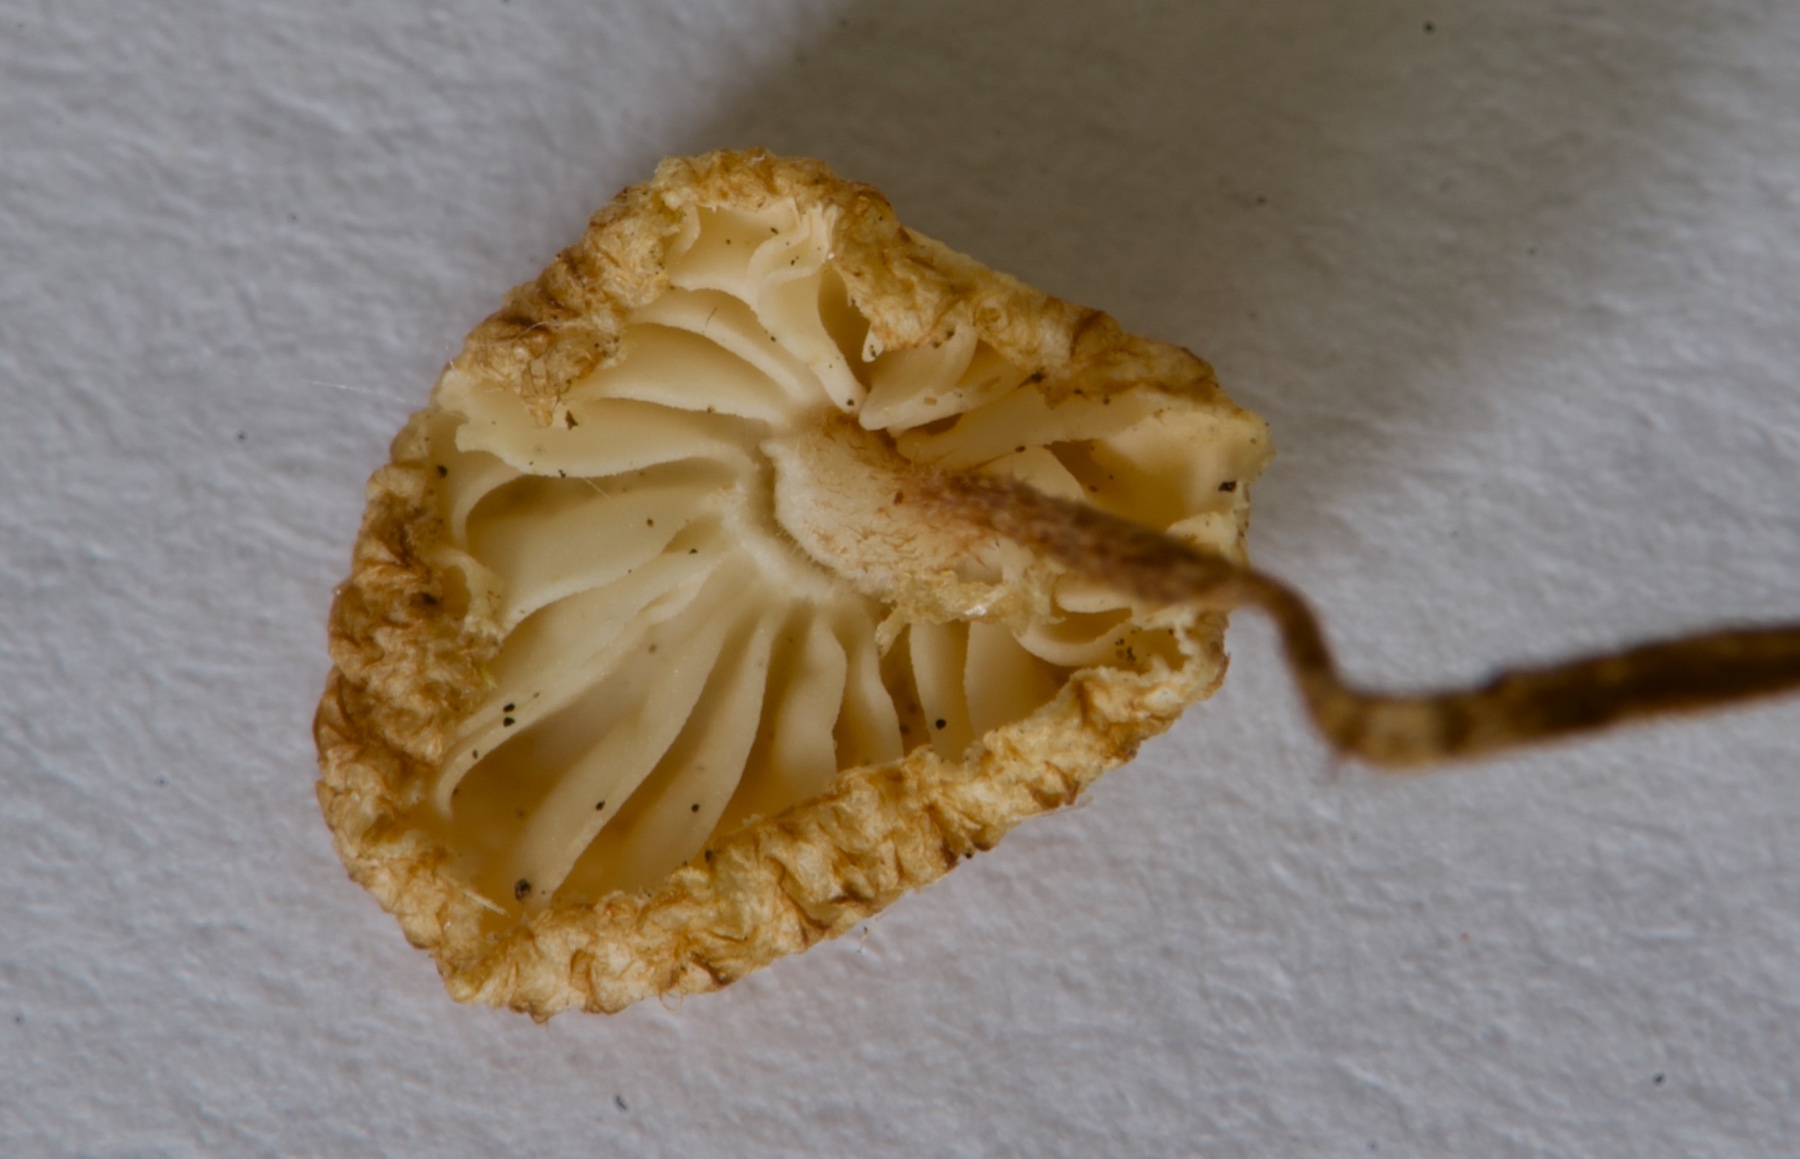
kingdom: Fungi
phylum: Basidiomycota
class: Agaricomycetes
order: Agaricales
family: Marasmiaceae
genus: Crinipellis
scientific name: Crinipellis scabella
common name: børstefod
